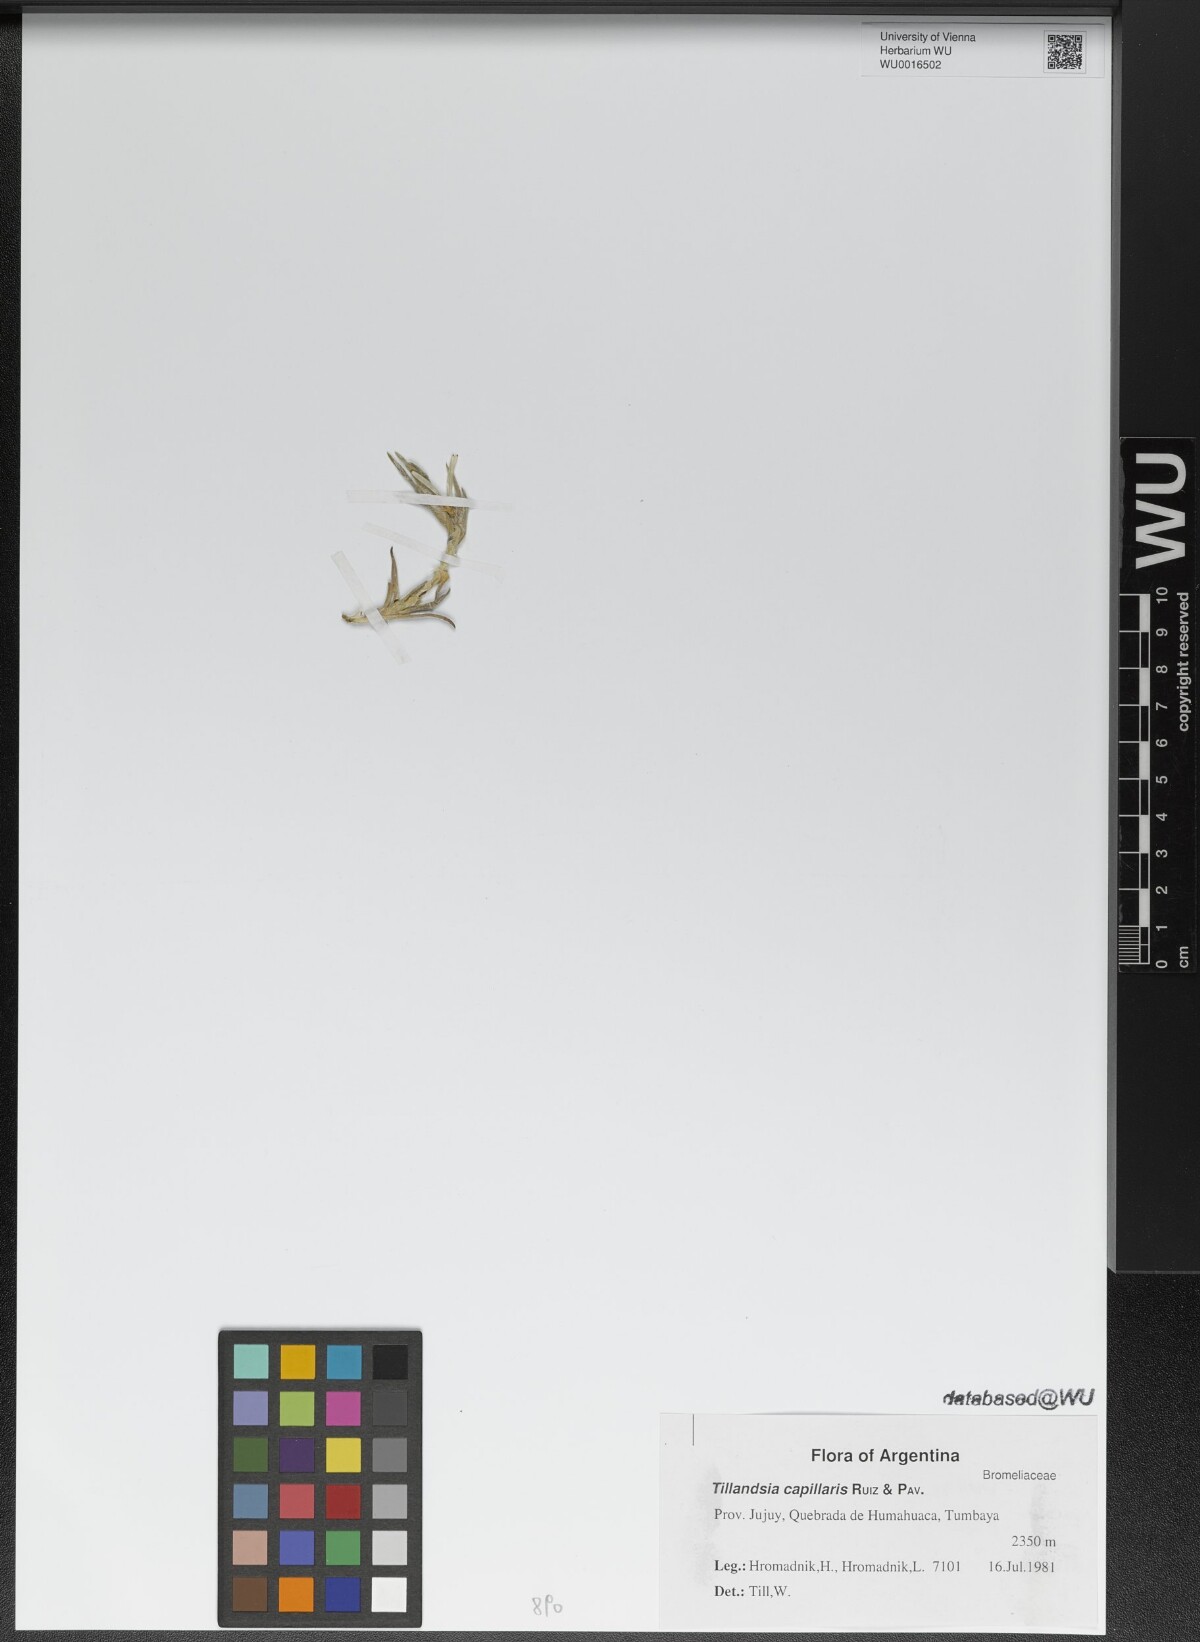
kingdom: Plantae
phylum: Tracheophyta
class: Liliopsida
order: Poales
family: Bromeliaceae
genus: Tillandsia
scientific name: Tillandsia capillaris
